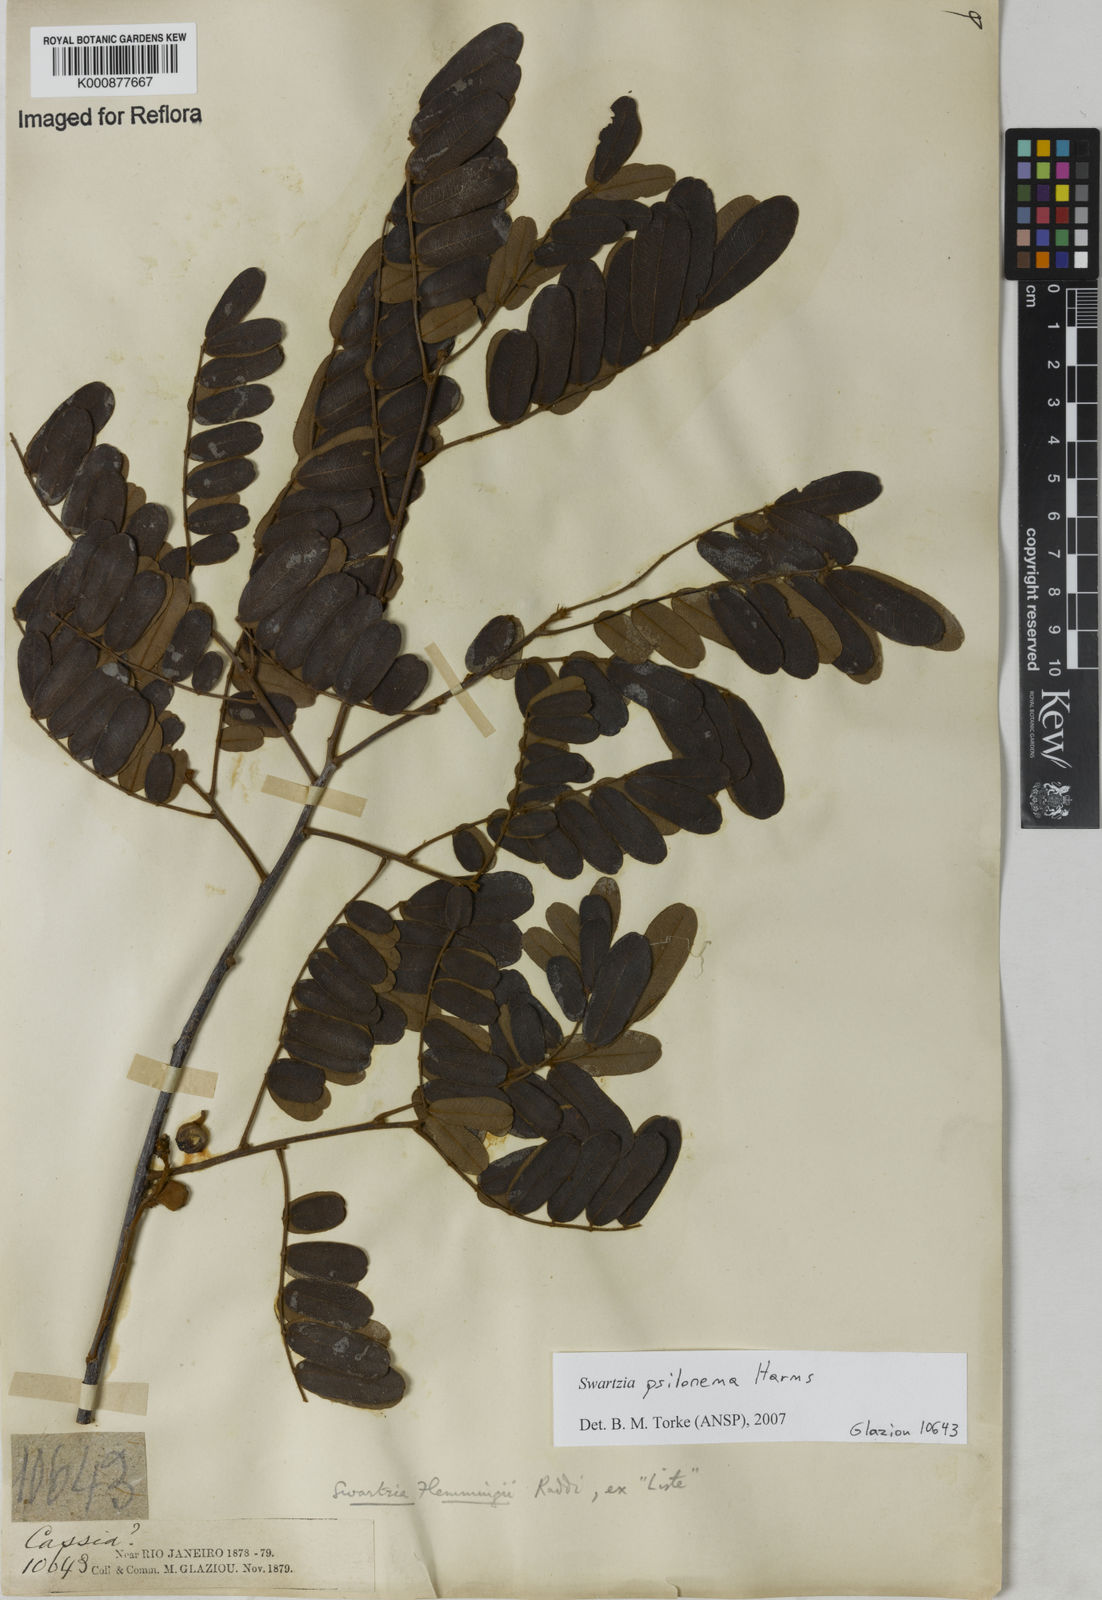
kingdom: Plantae
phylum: Tracheophyta
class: Magnoliopsida
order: Fabales
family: Fabaceae
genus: Swartzia
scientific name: Swartzia psilonema
